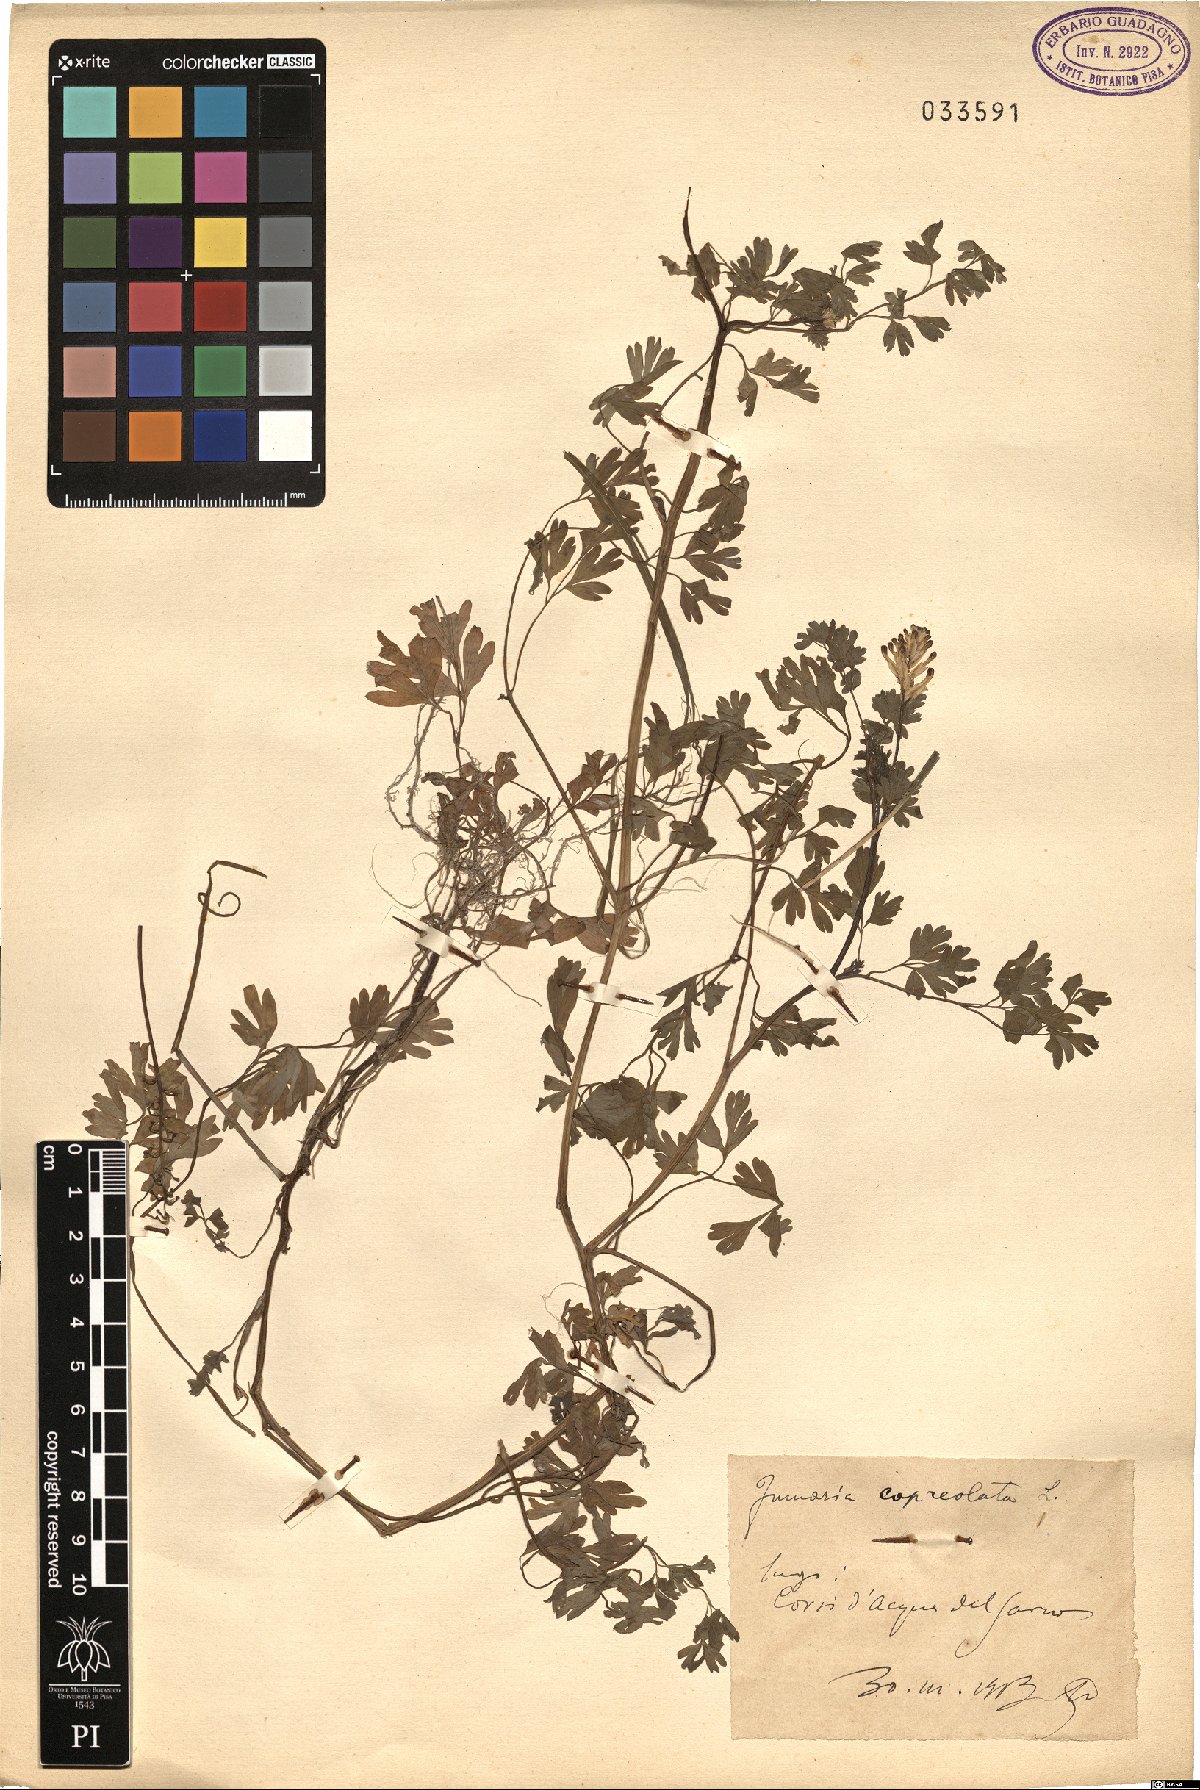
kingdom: Plantae
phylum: Tracheophyta
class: Magnoliopsida
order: Ranunculales
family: Papaveraceae
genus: Fumaria
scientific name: Fumaria capreolata
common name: White ramping-fumitory
